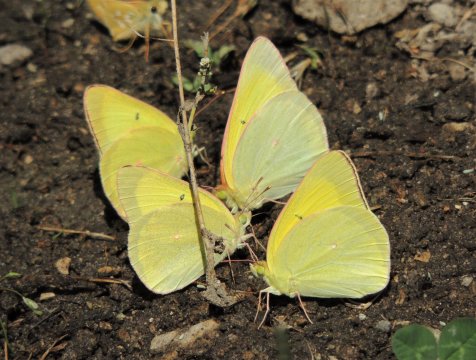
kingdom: Animalia
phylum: Arthropoda
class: Insecta
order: Lepidoptera
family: Pieridae
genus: Colias
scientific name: Colias alexandra
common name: Queen Alexandra's Sulphur
